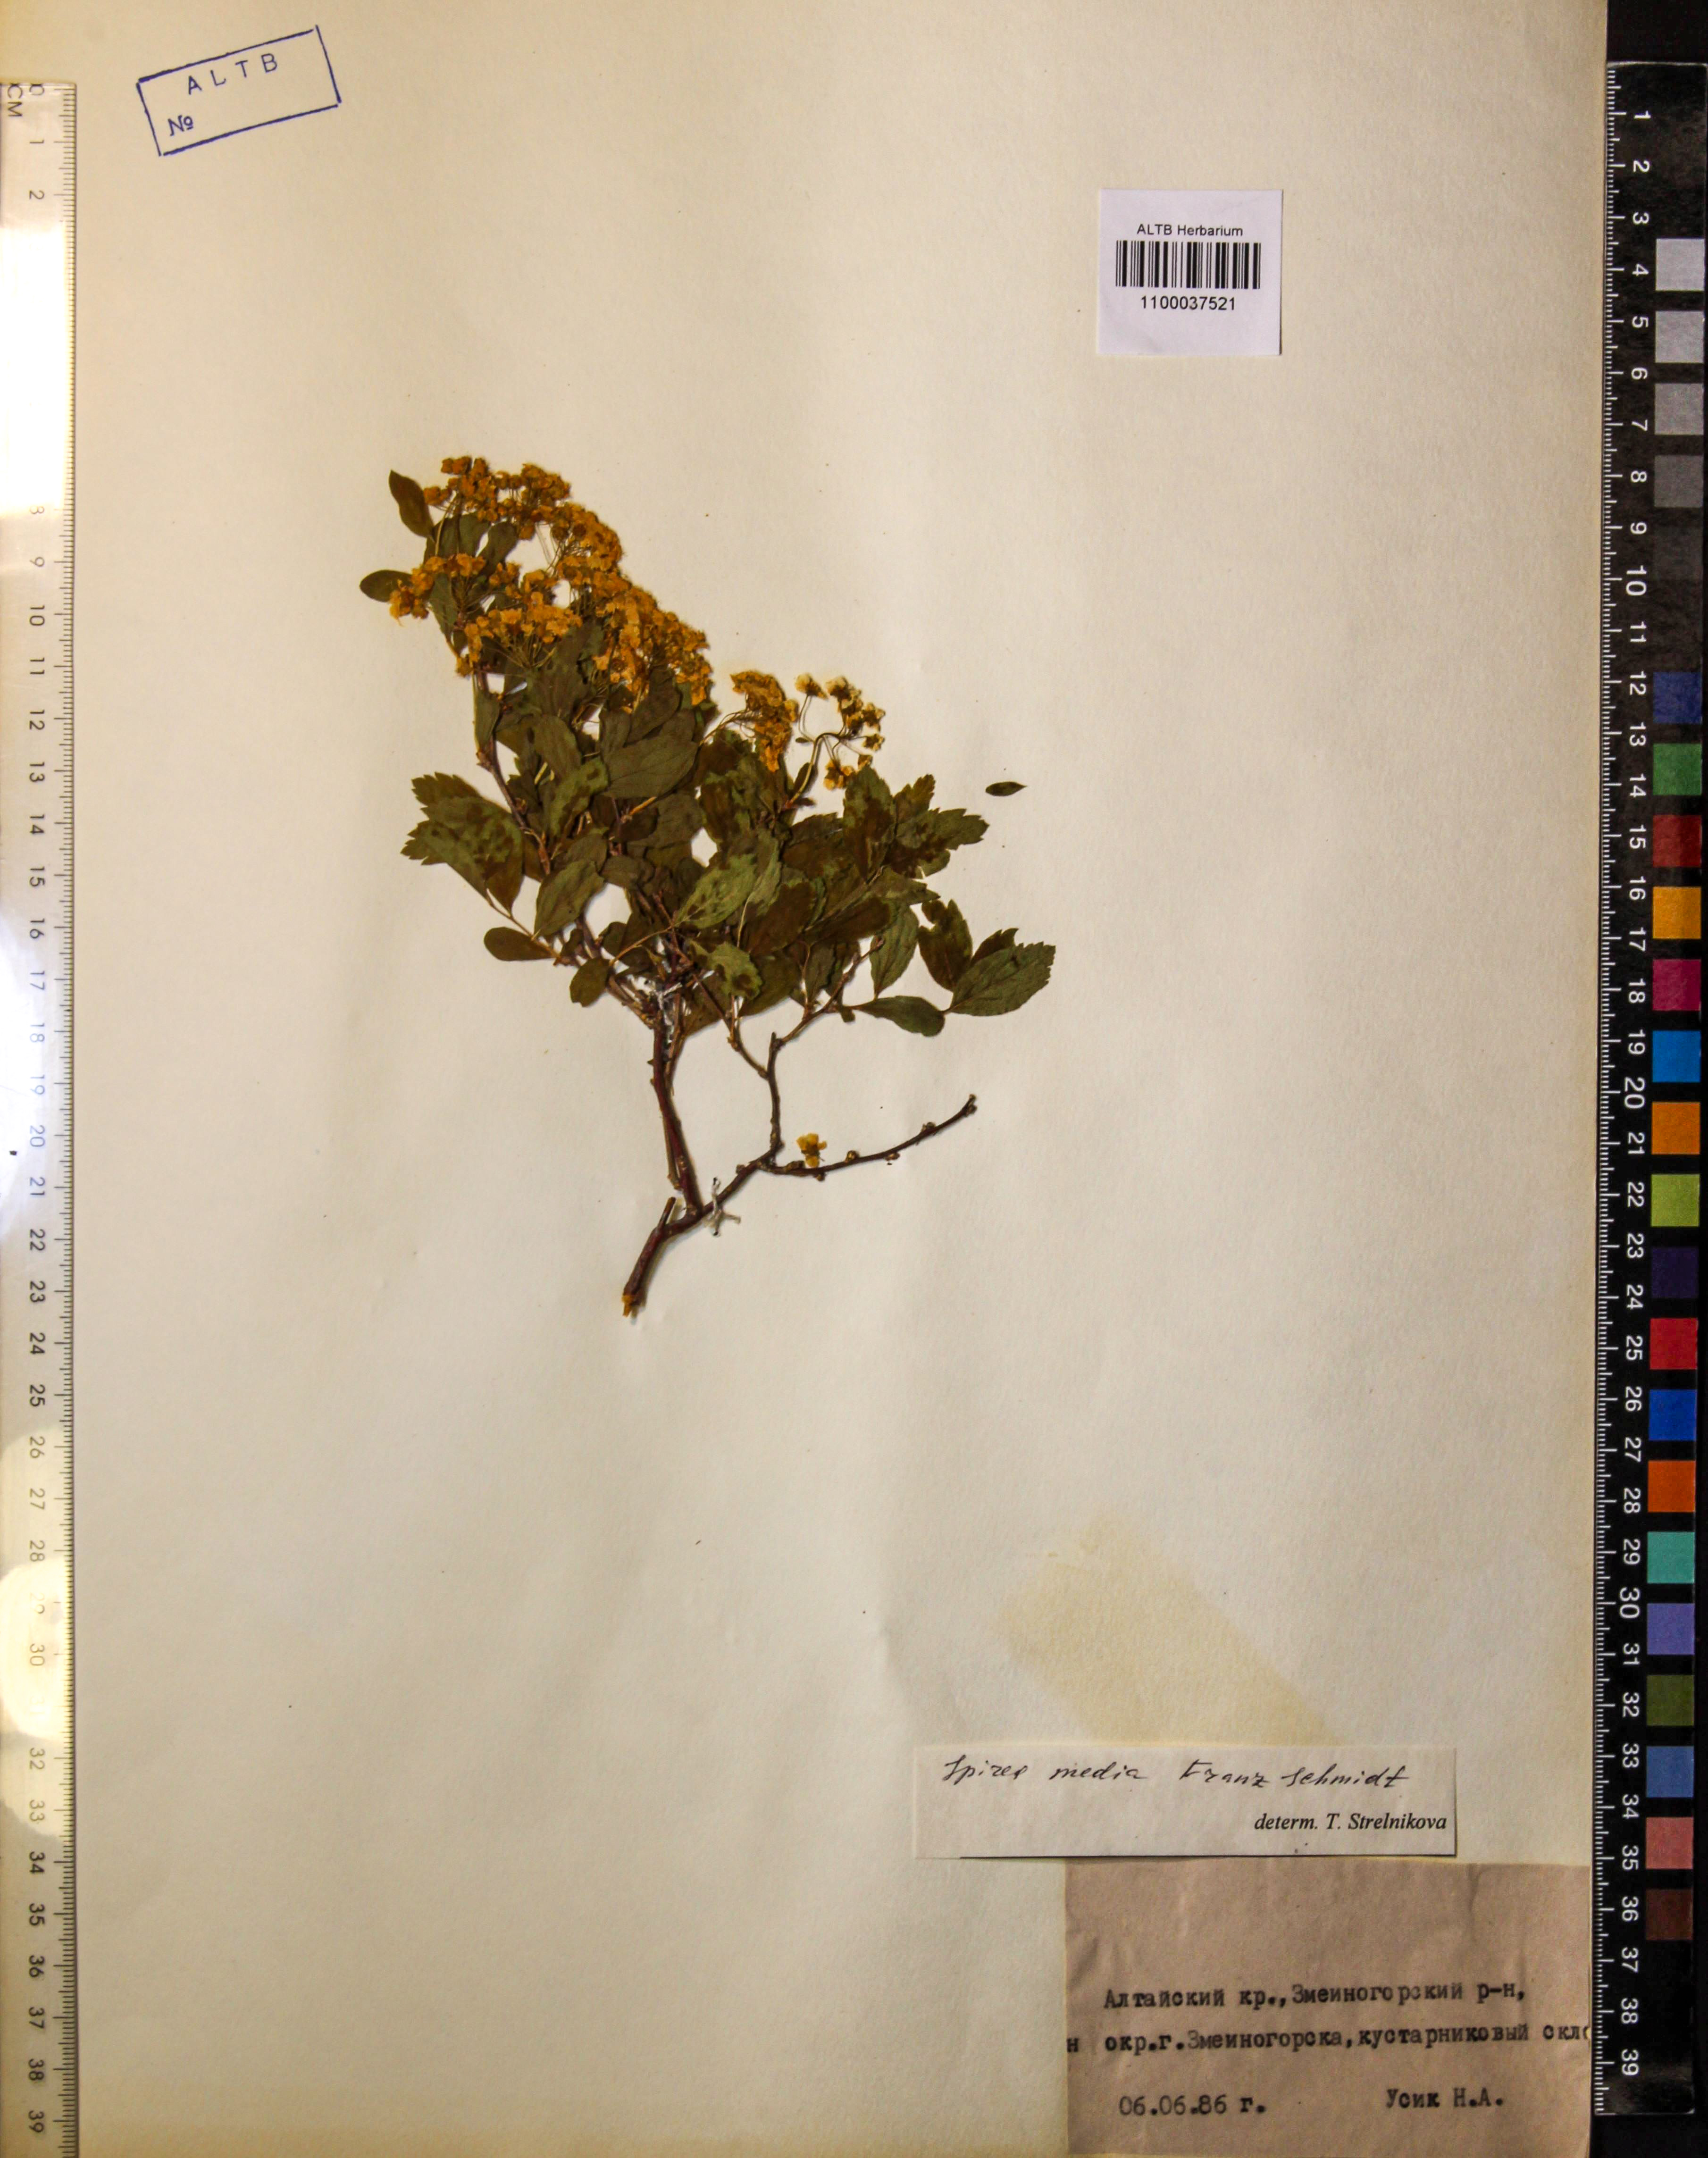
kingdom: Plantae
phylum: Tracheophyta
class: Magnoliopsida
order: Rosales
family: Rosaceae
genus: Spiraea
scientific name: Spiraea media
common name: Russian spiraea
